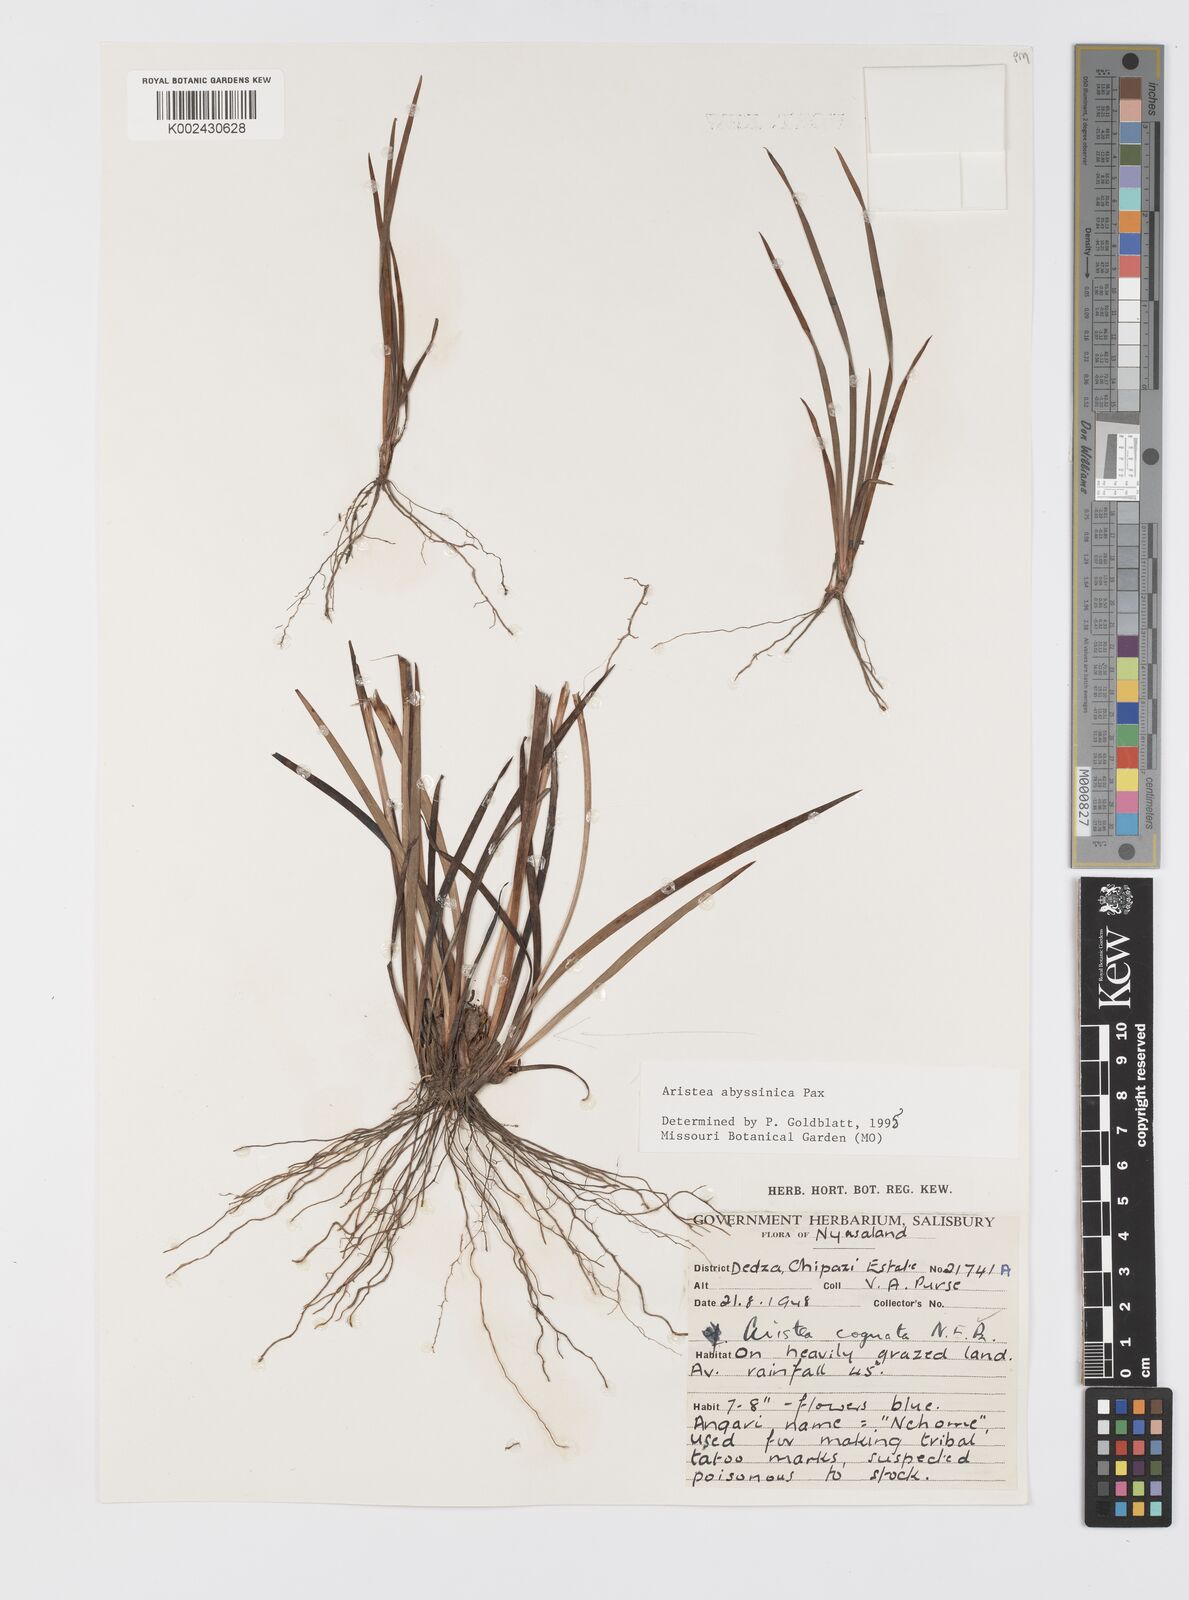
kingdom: Plantae
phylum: Tracheophyta
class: Liliopsida
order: Asparagales
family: Iridaceae
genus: Aristea
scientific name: Aristea abyssinica
